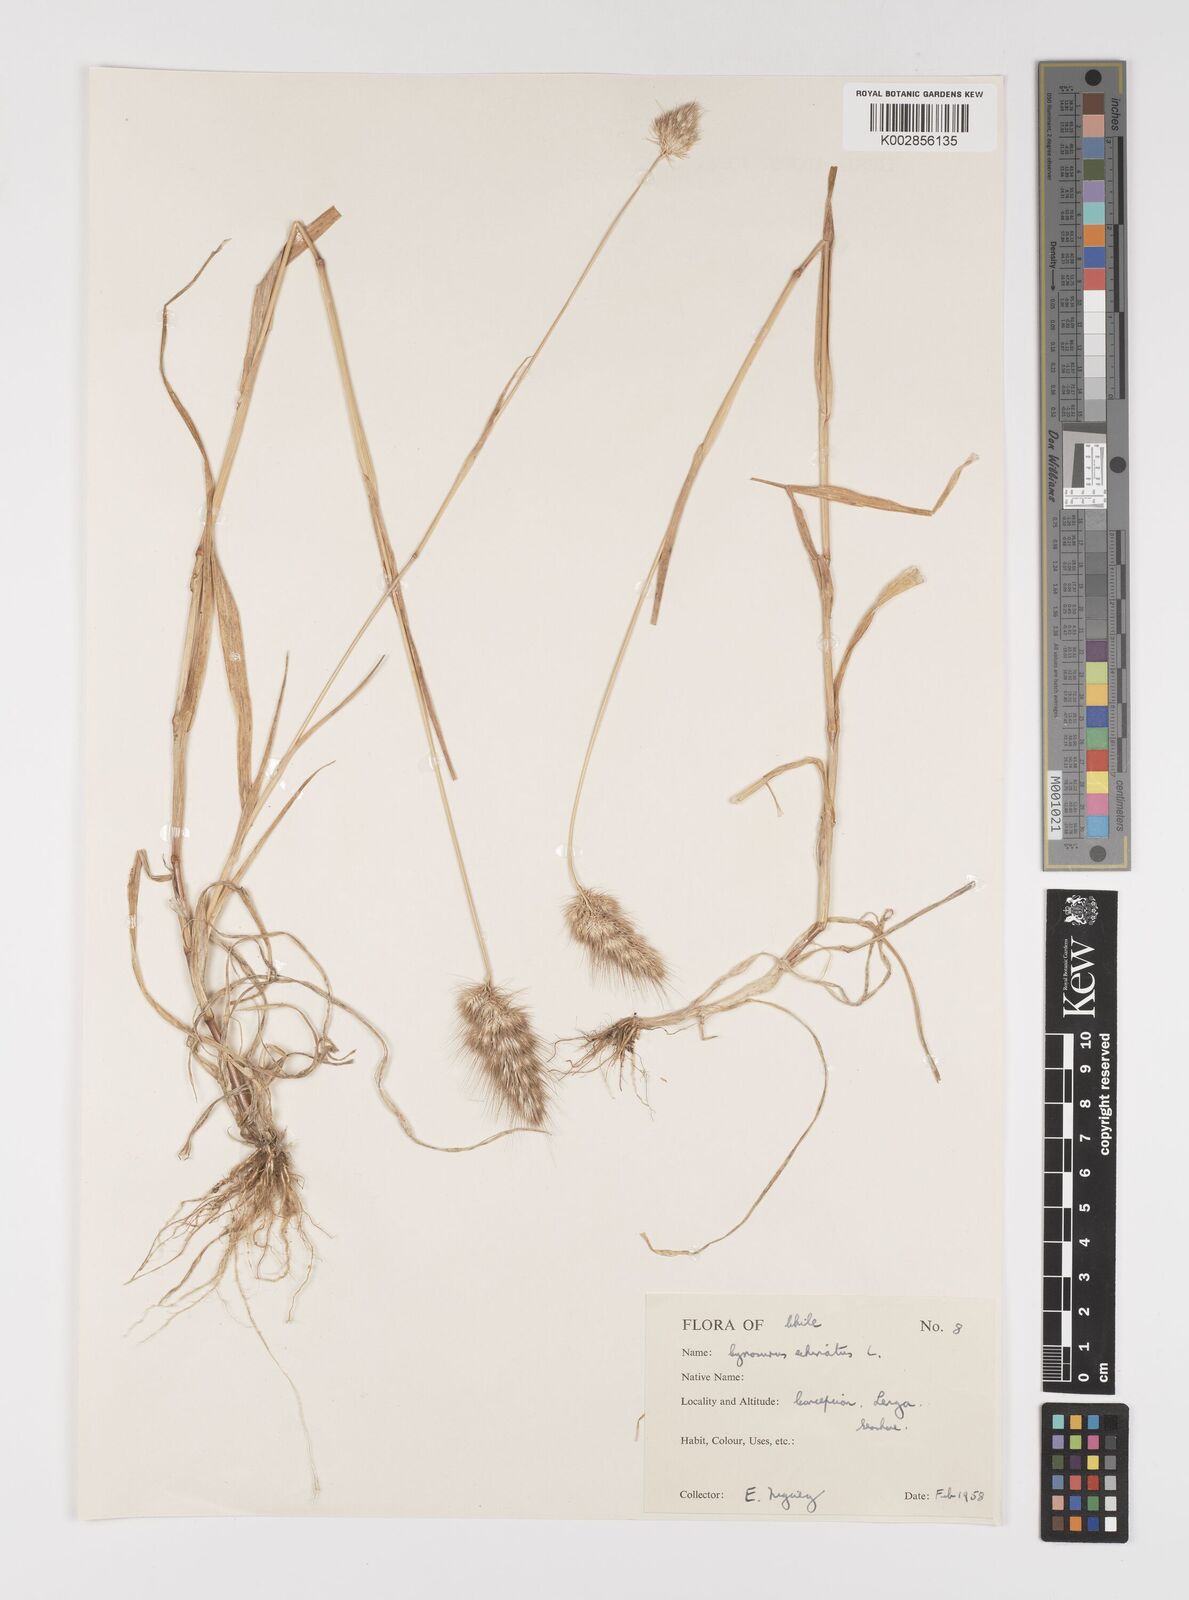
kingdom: Plantae
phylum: Tracheophyta
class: Liliopsida
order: Poales
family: Poaceae
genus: Cynosurus
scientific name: Cynosurus echinatus
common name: Rough dog's-tail
